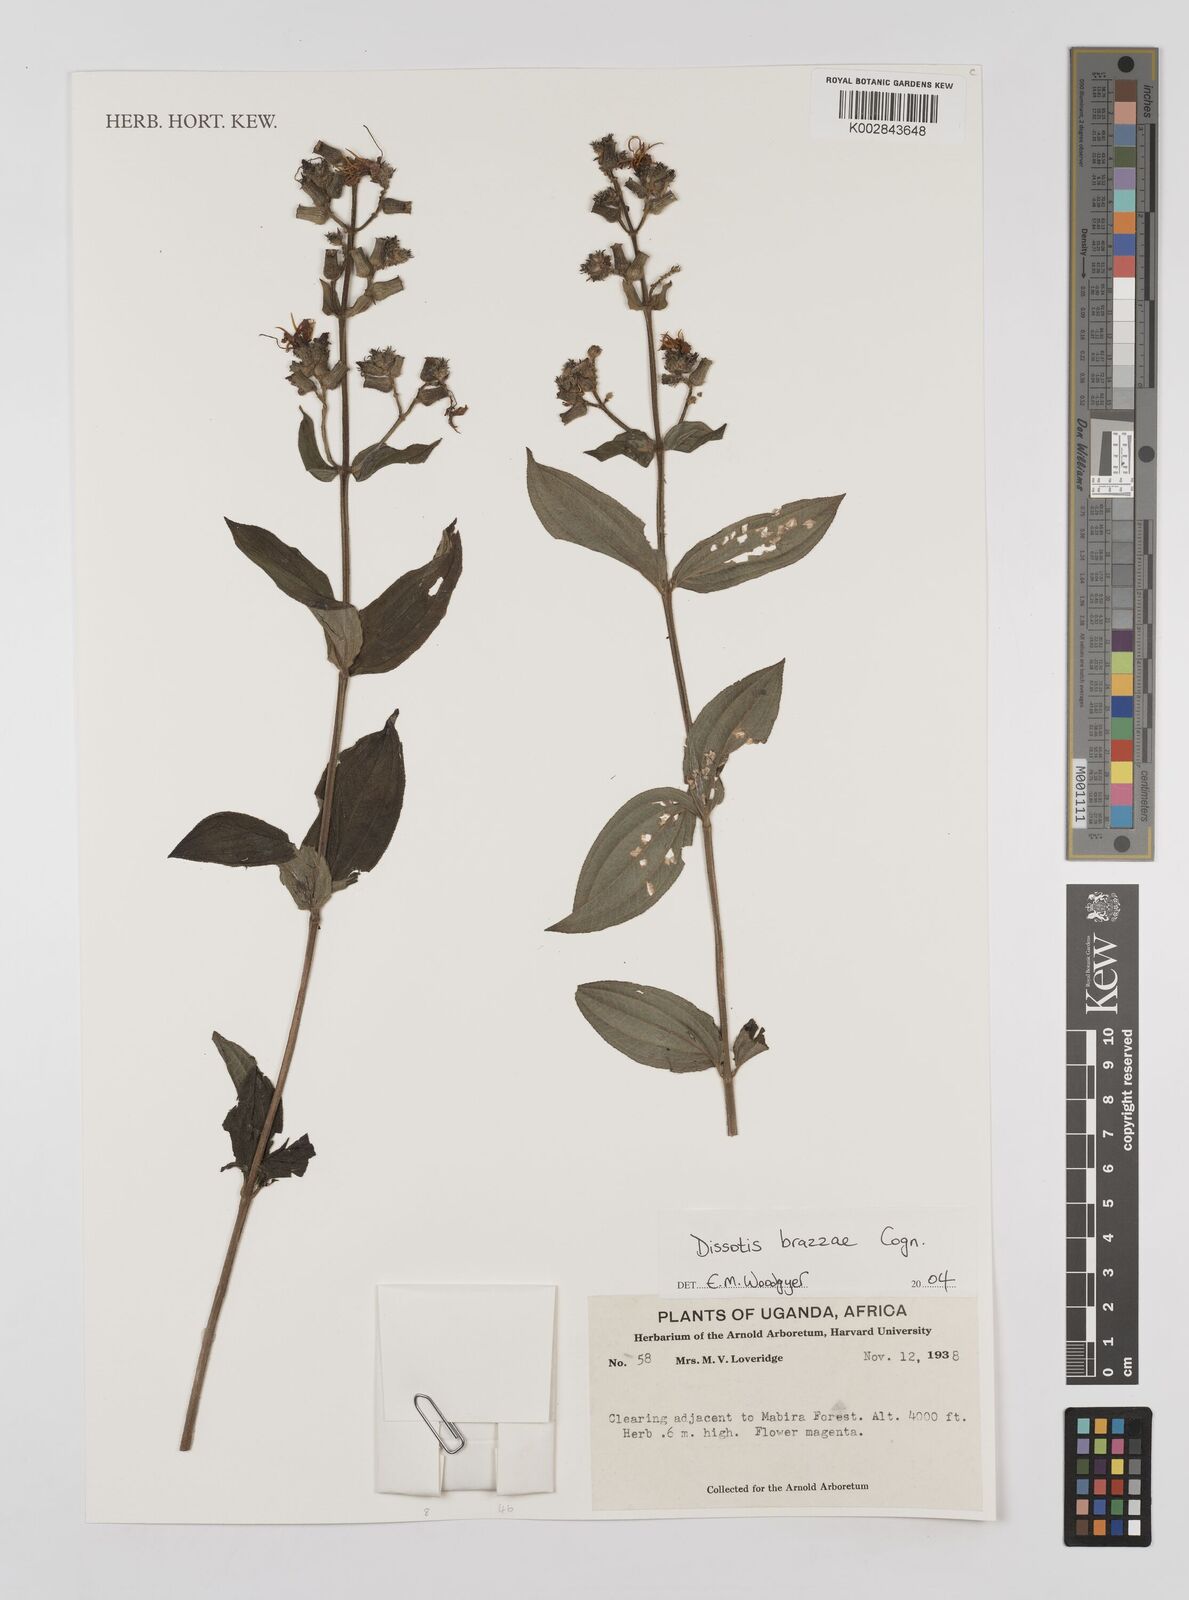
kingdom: Plantae
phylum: Tracheophyta
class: Magnoliopsida
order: Myrtales
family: Melastomataceae
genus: Dupineta
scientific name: Dupineta brazzae
